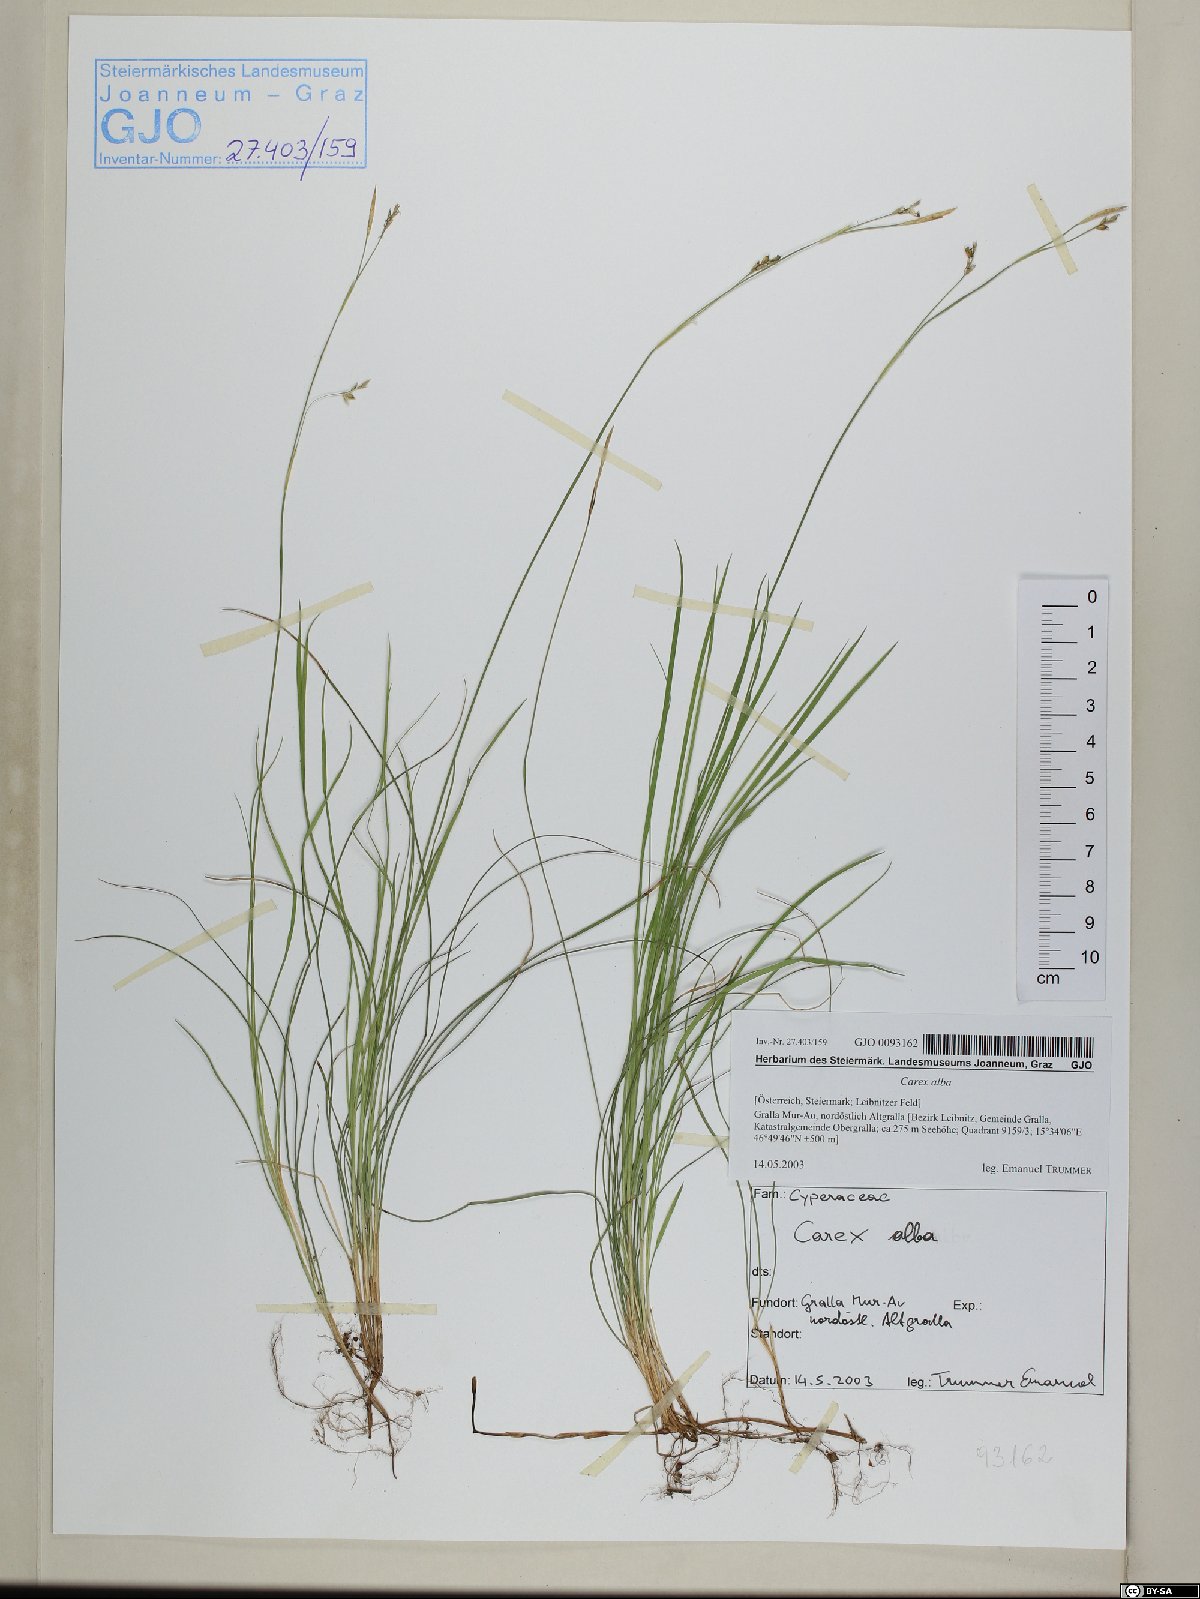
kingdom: Plantae
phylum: Tracheophyta
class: Liliopsida
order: Poales
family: Cyperaceae
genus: Carex
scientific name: Carex alba
